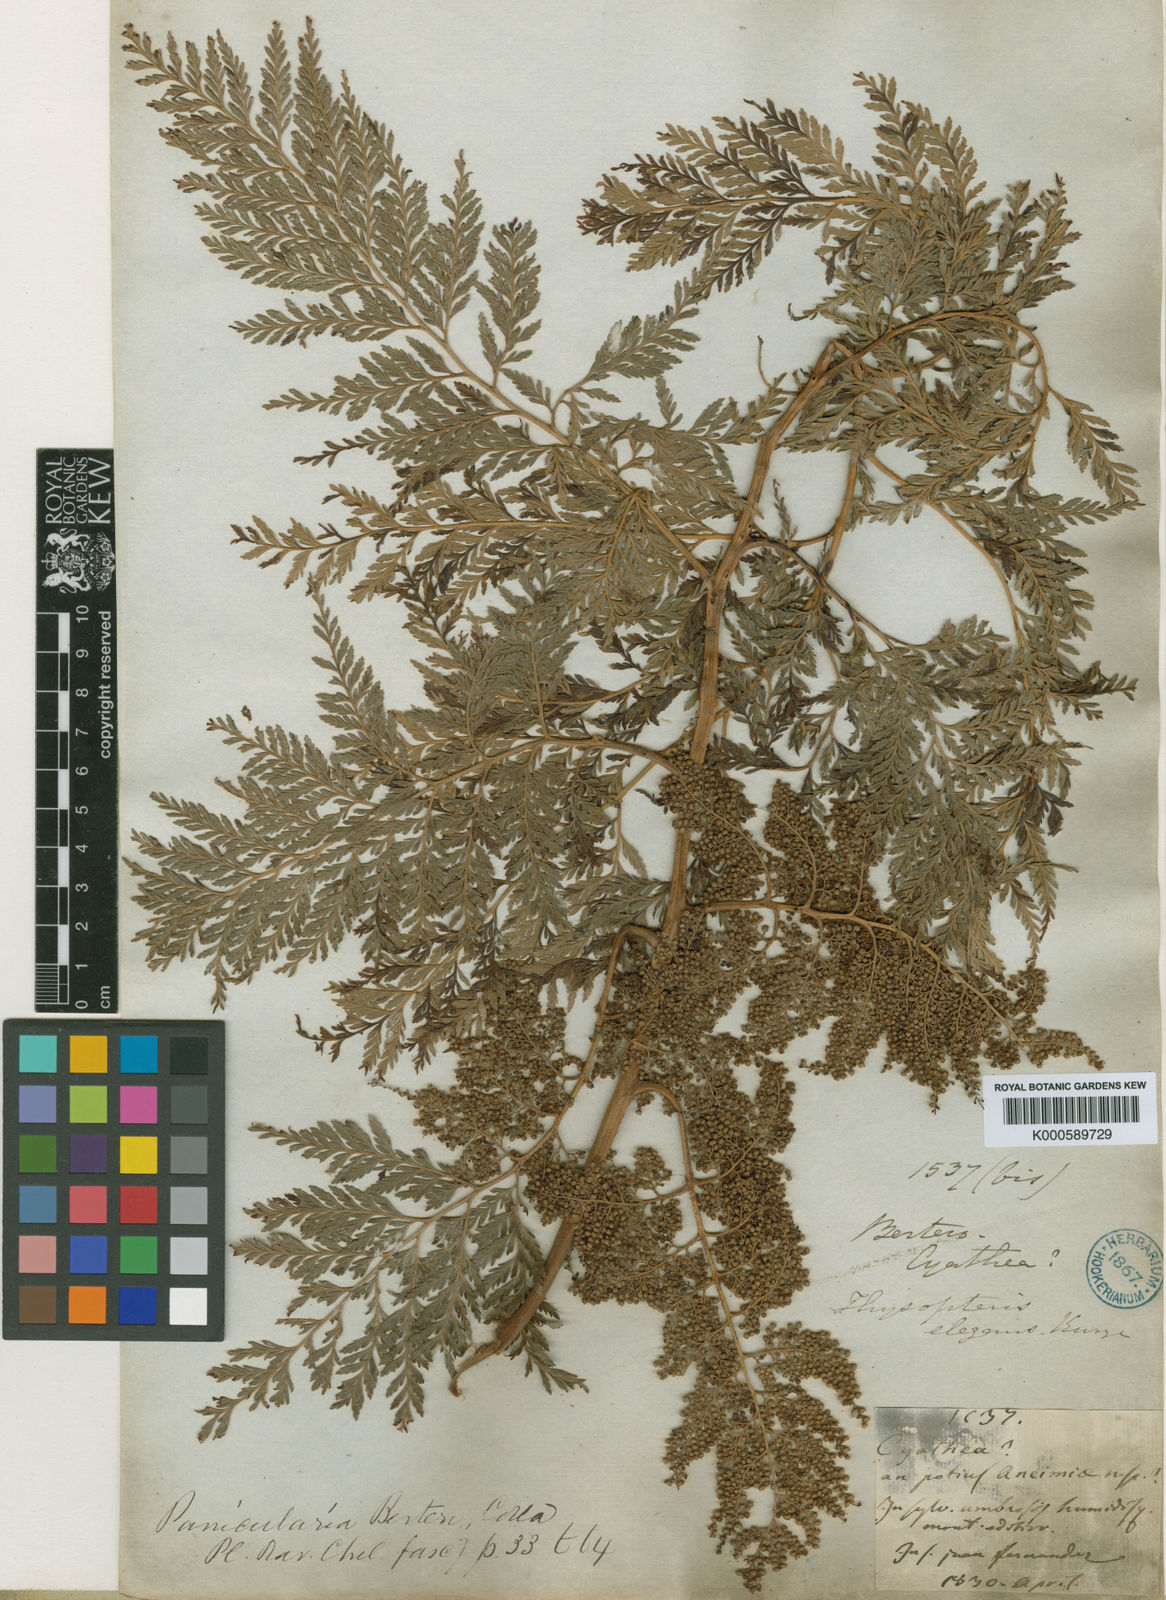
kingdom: Plantae
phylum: Tracheophyta
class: Polypodiopsida
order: Cyatheales
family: Thyrsopteridaceae
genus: Thyrsopteris
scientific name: Thyrsopteris elegans
